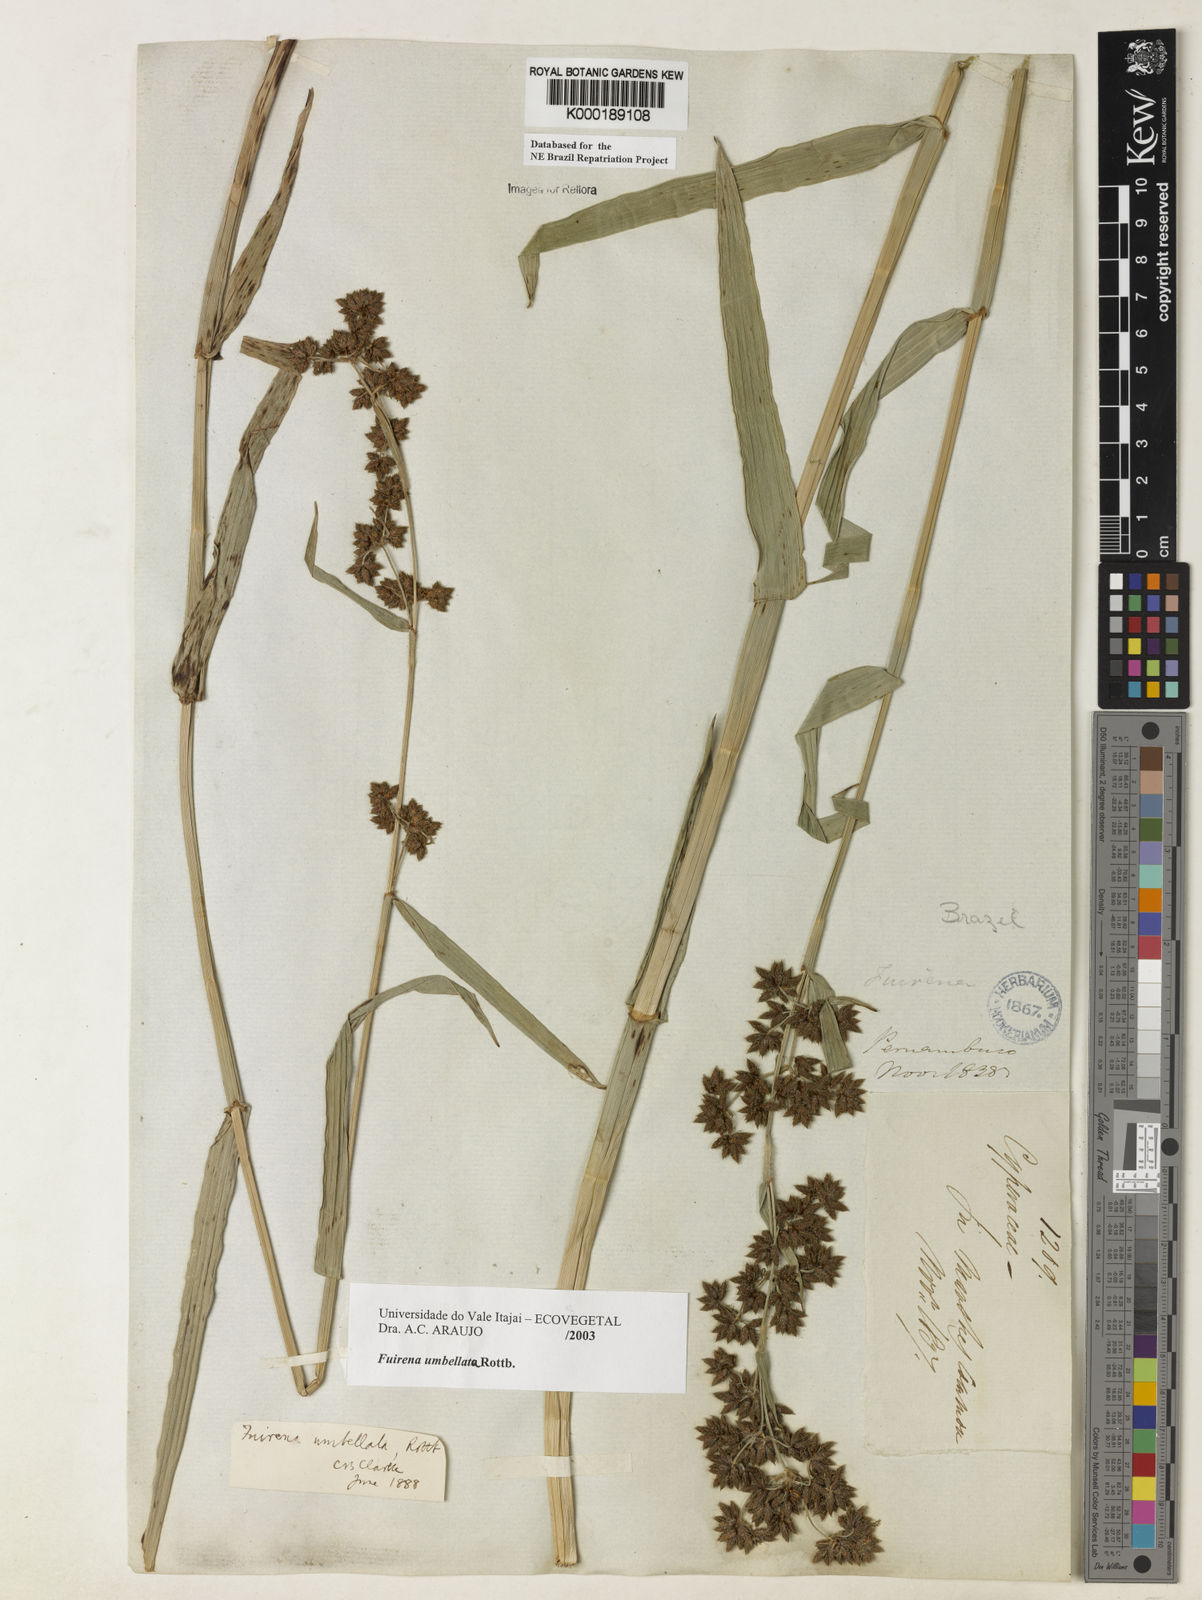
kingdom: Plantae
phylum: Tracheophyta
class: Liliopsida
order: Poales
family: Cyperaceae
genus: Fuirena
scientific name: Fuirena umbellata
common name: Yefen
